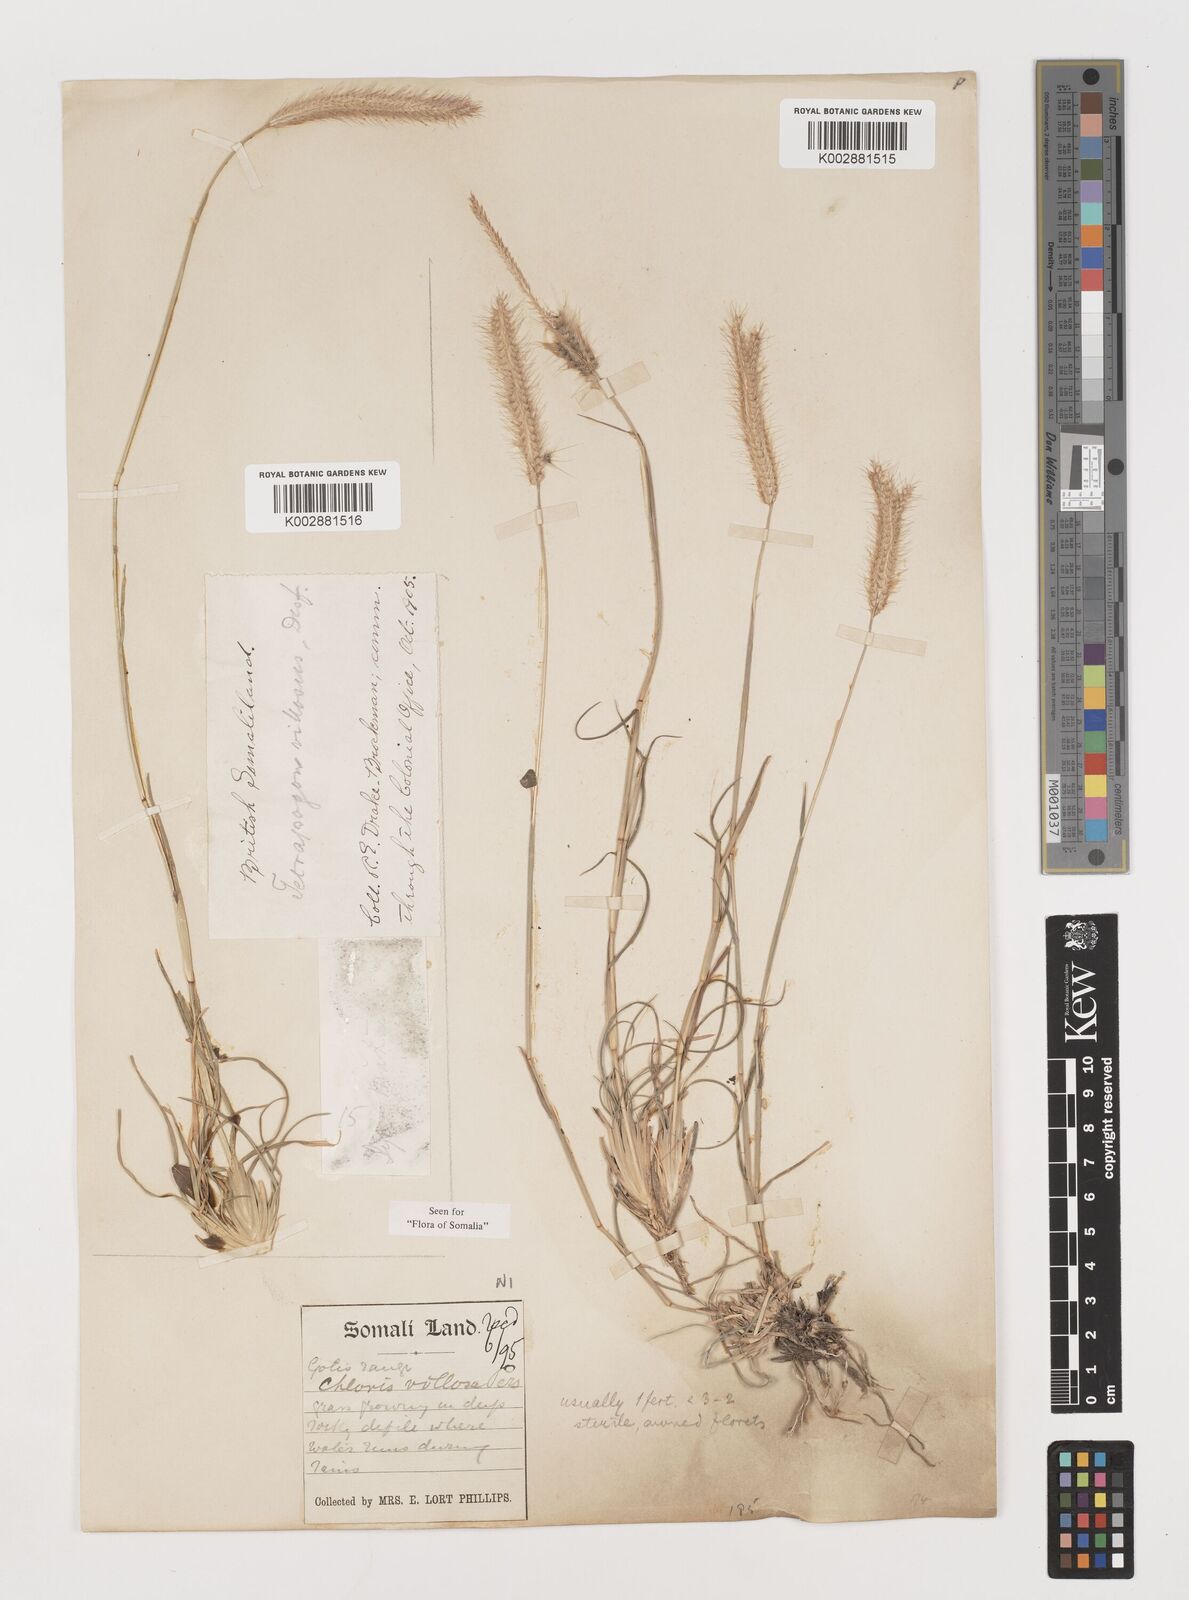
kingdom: Plantae
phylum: Tracheophyta
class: Liliopsida
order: Poales
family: Poaceae
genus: Tetrapogon
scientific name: Tetrapogon villosus
